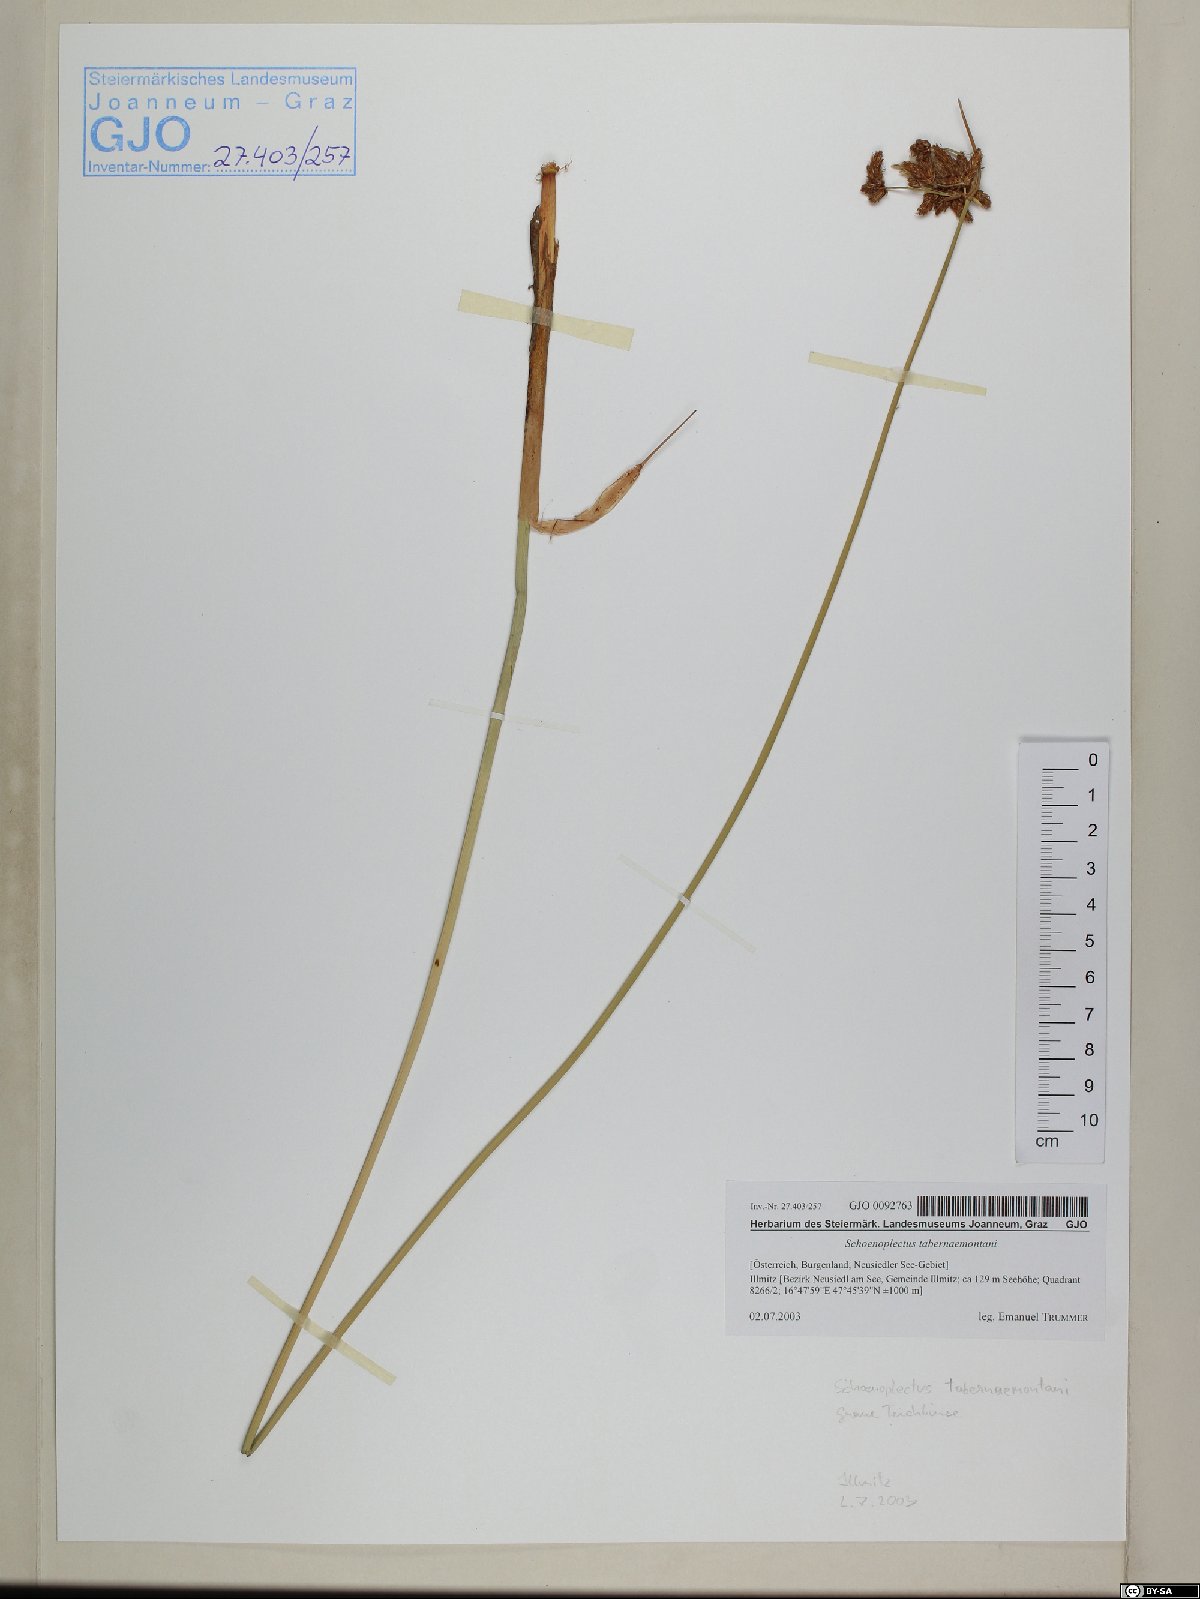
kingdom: Plantae
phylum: Tracheophyta
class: Liliopsida
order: Poales
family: Cyperaceae
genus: Schoenoplectus
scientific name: Schoenoplectus tabernaemontani
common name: Grey club-rush
